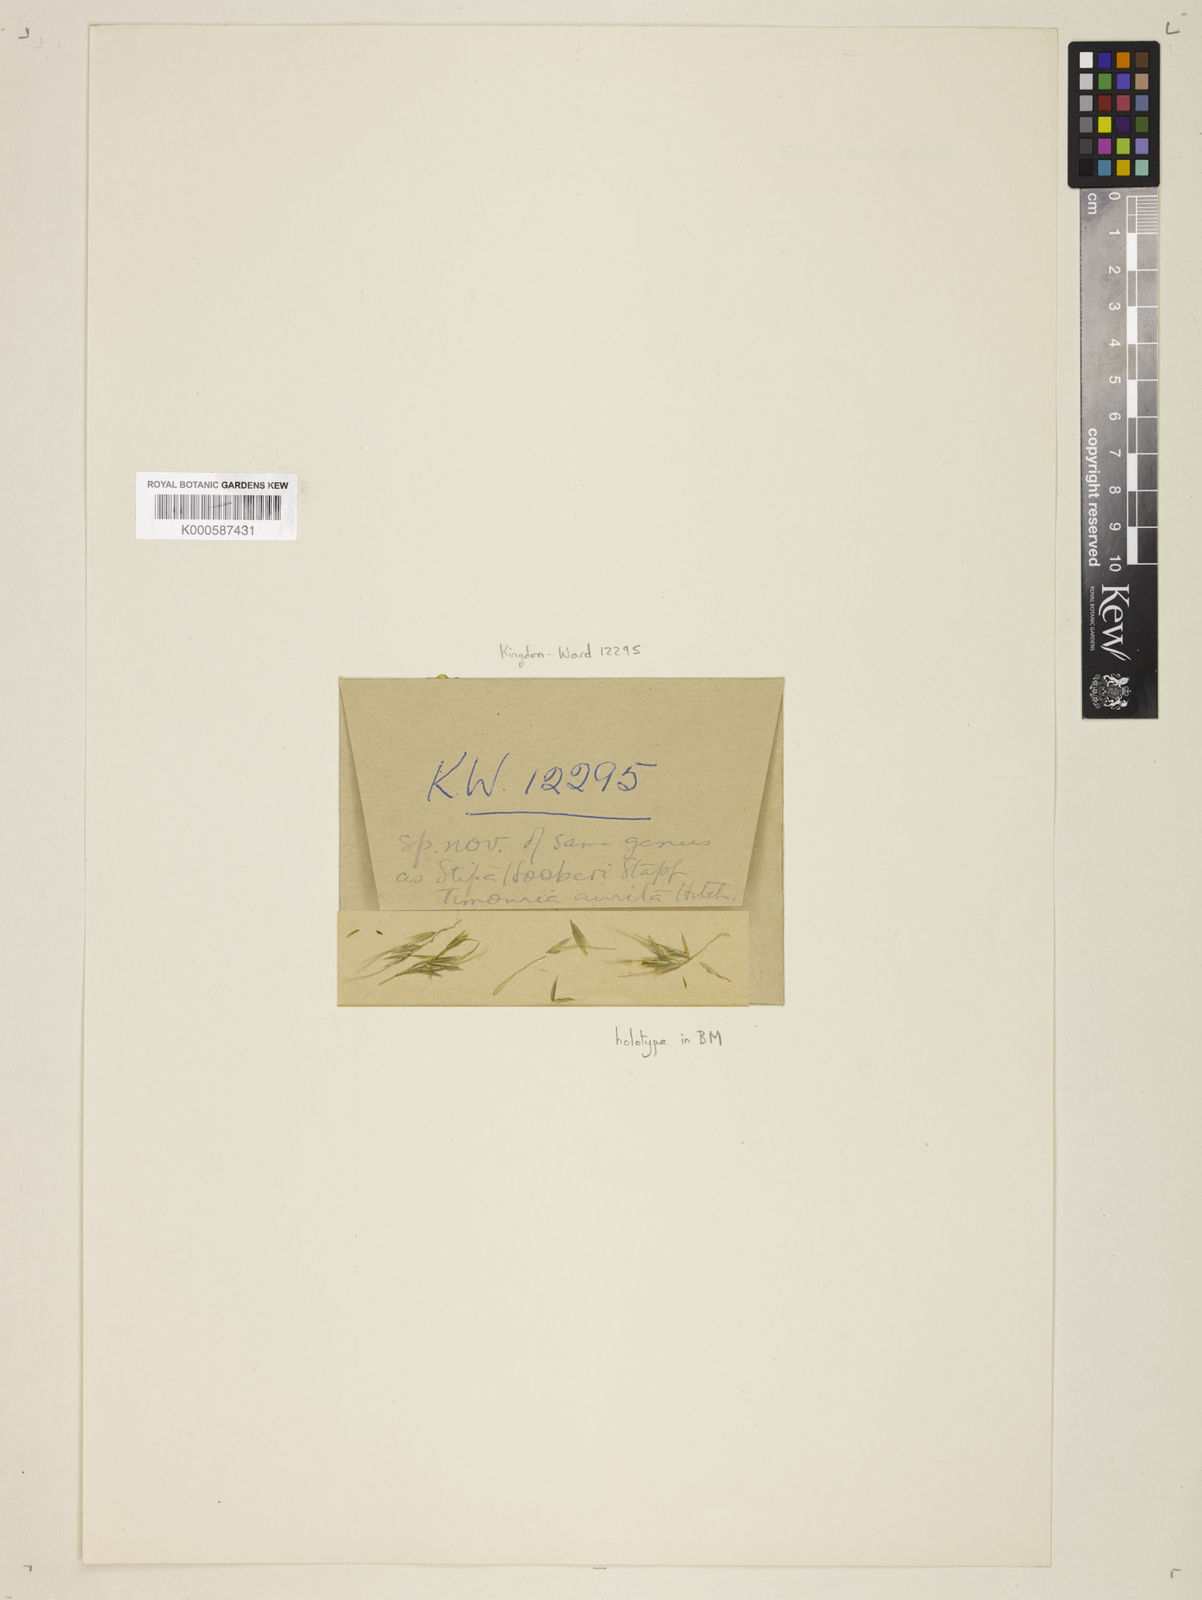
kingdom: Plantae
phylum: Tracheophyta
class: Liliopsida
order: Poales
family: Poaceae
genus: Trikeraia
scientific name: Trikeraia hookeri
